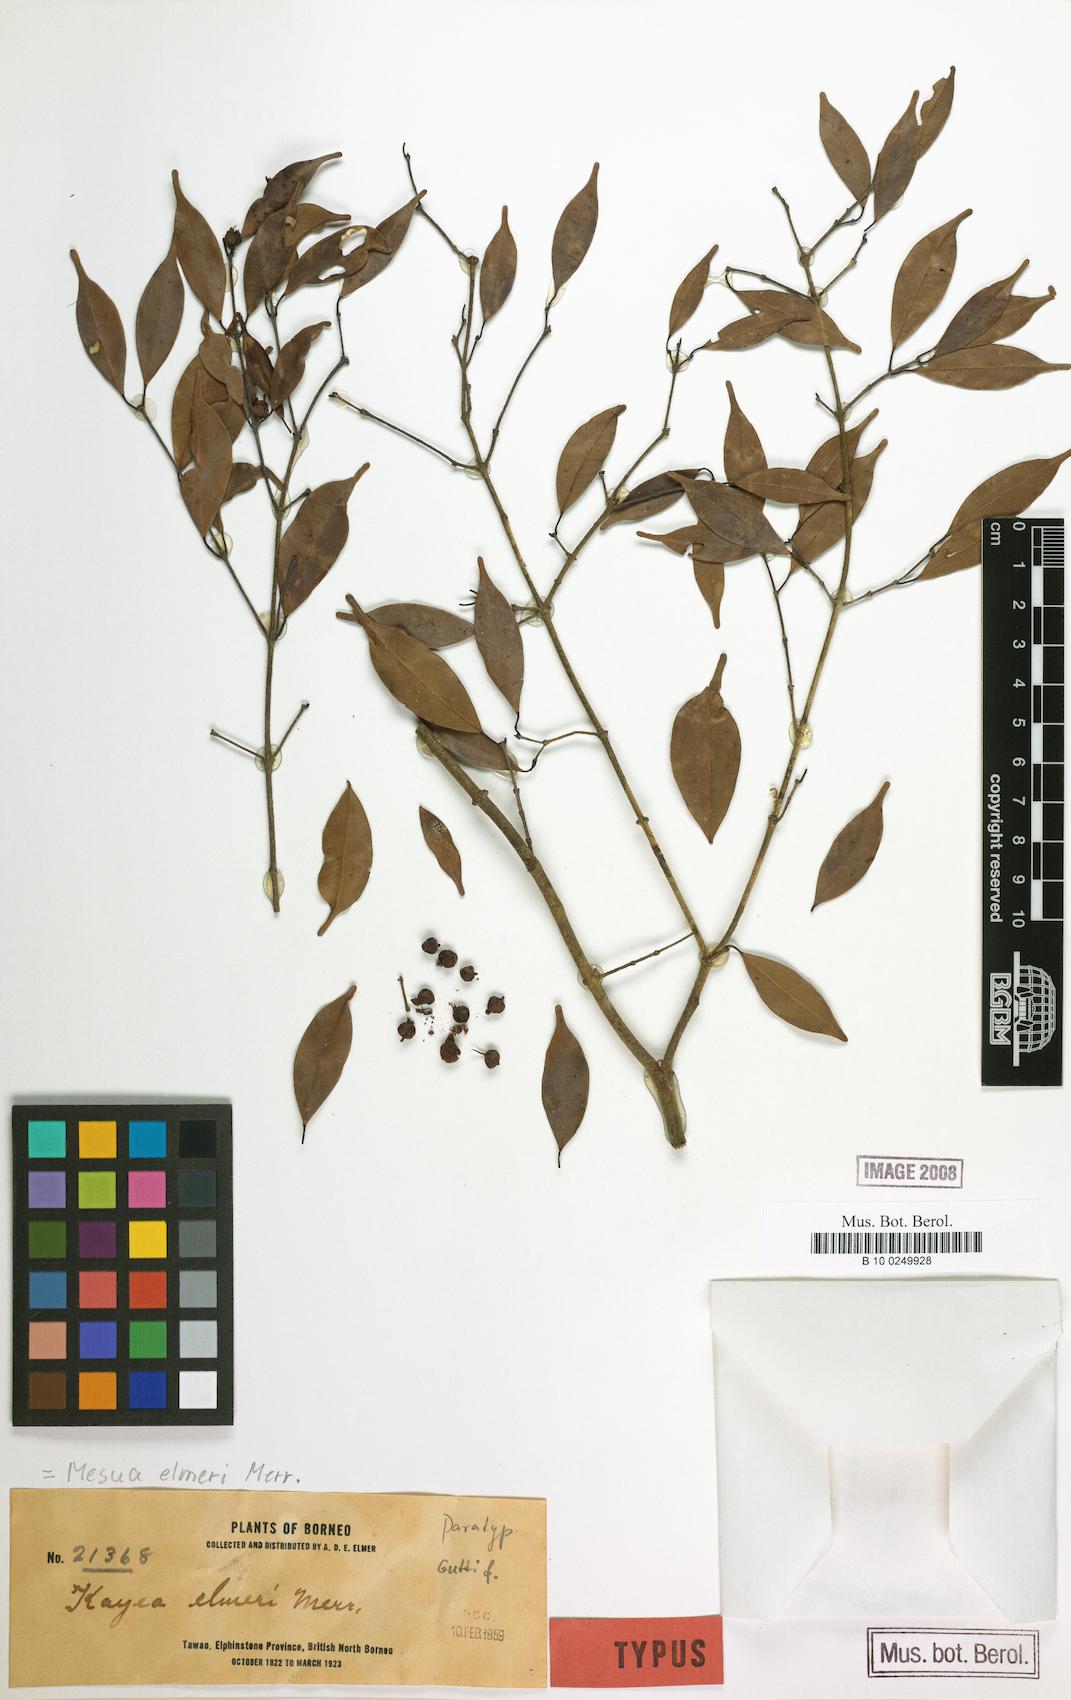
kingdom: Plantae
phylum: Tracheophyta
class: Magnoliopsida
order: Malpighiales
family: Calophyllaceae
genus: Kayea
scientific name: Kayea elmeri
